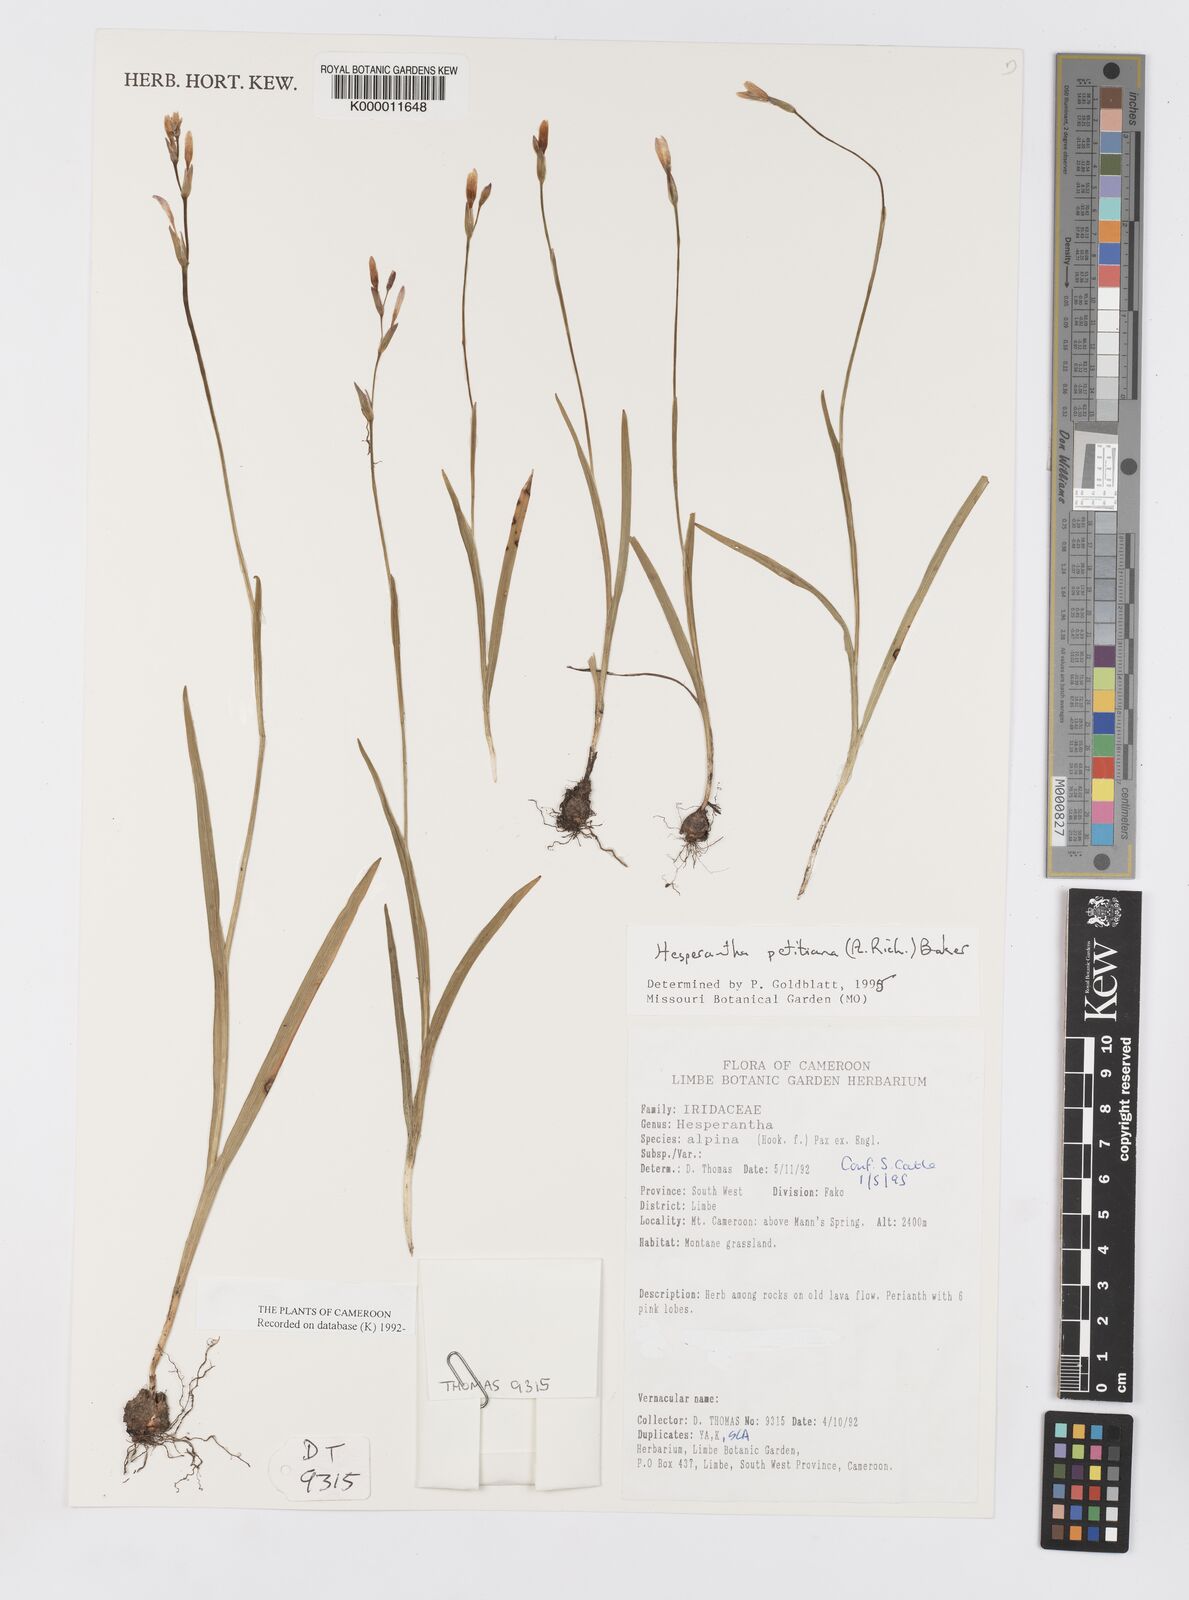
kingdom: Plantae
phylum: Tracheophyta
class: Liliopsida
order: Asparagales
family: Iridaceae
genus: Hesperantha
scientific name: Hesperantha petitiana
